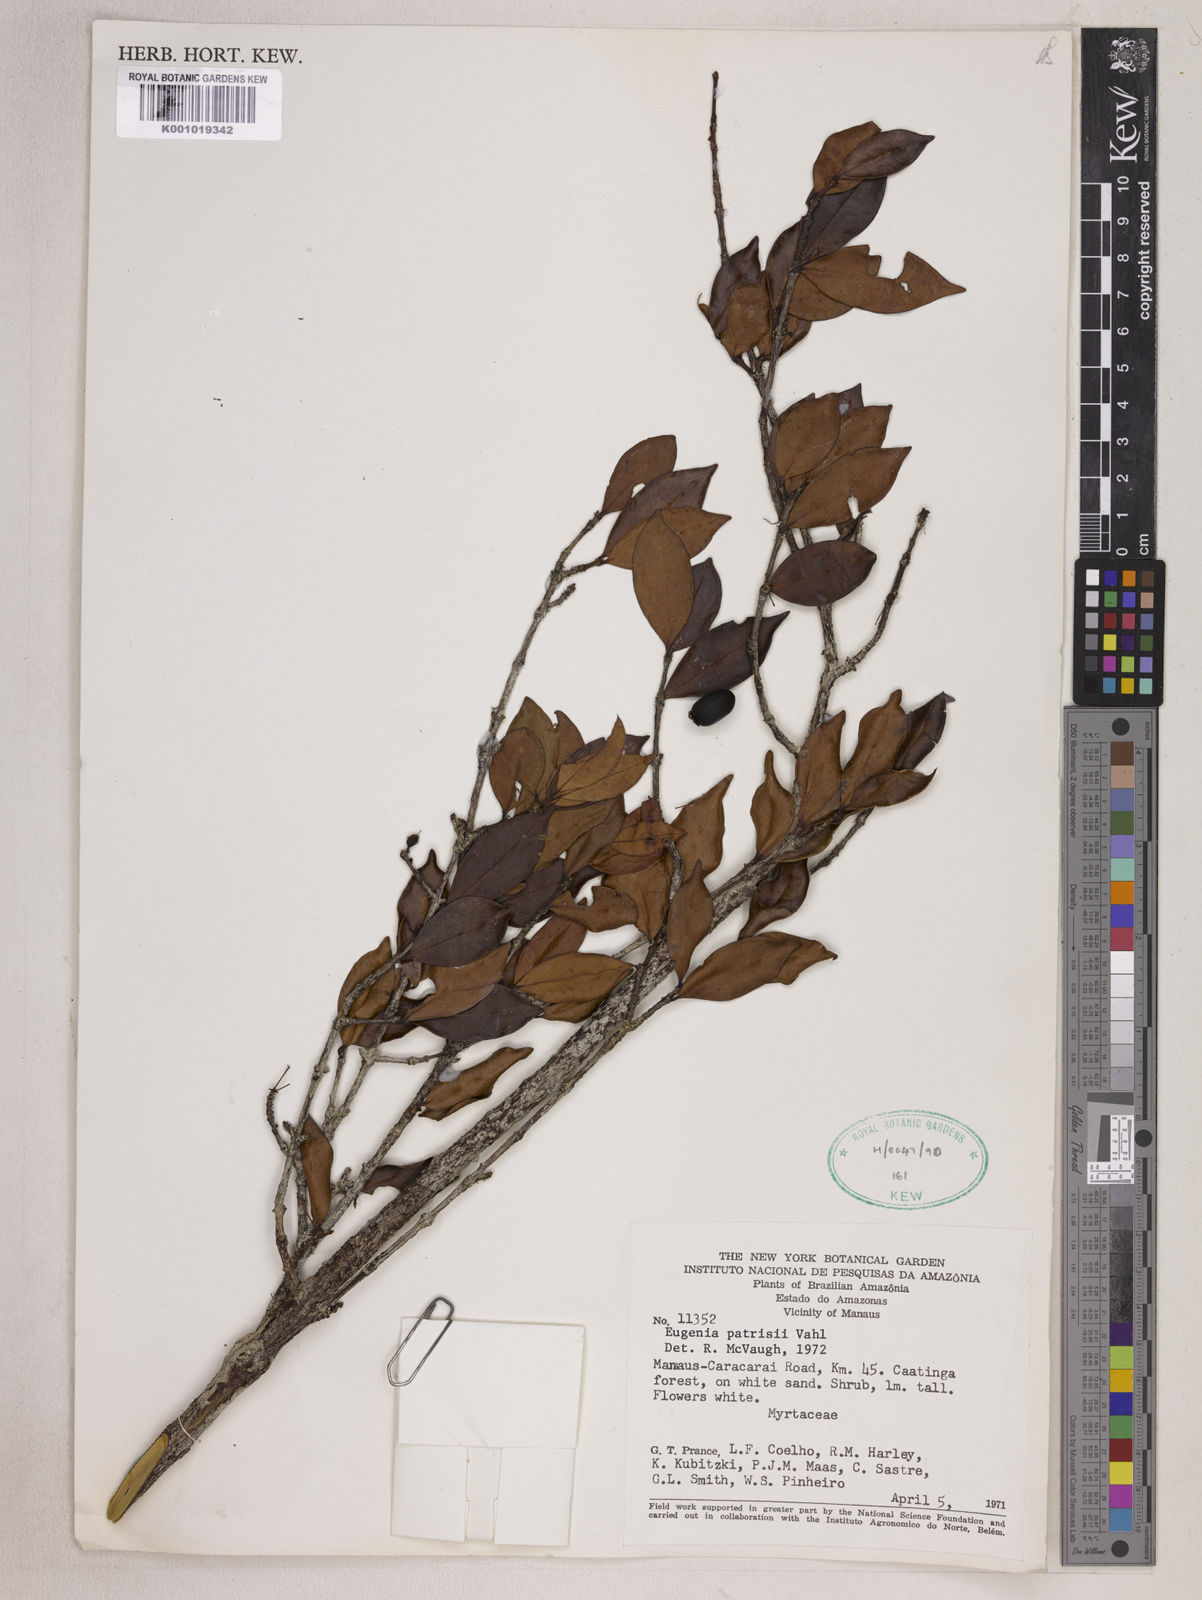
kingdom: Plantae
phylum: Tracheophyta
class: Magnoliopsida
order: Myrtales
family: Myrtaceae
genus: Eugenia
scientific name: Eugenia patrisii
